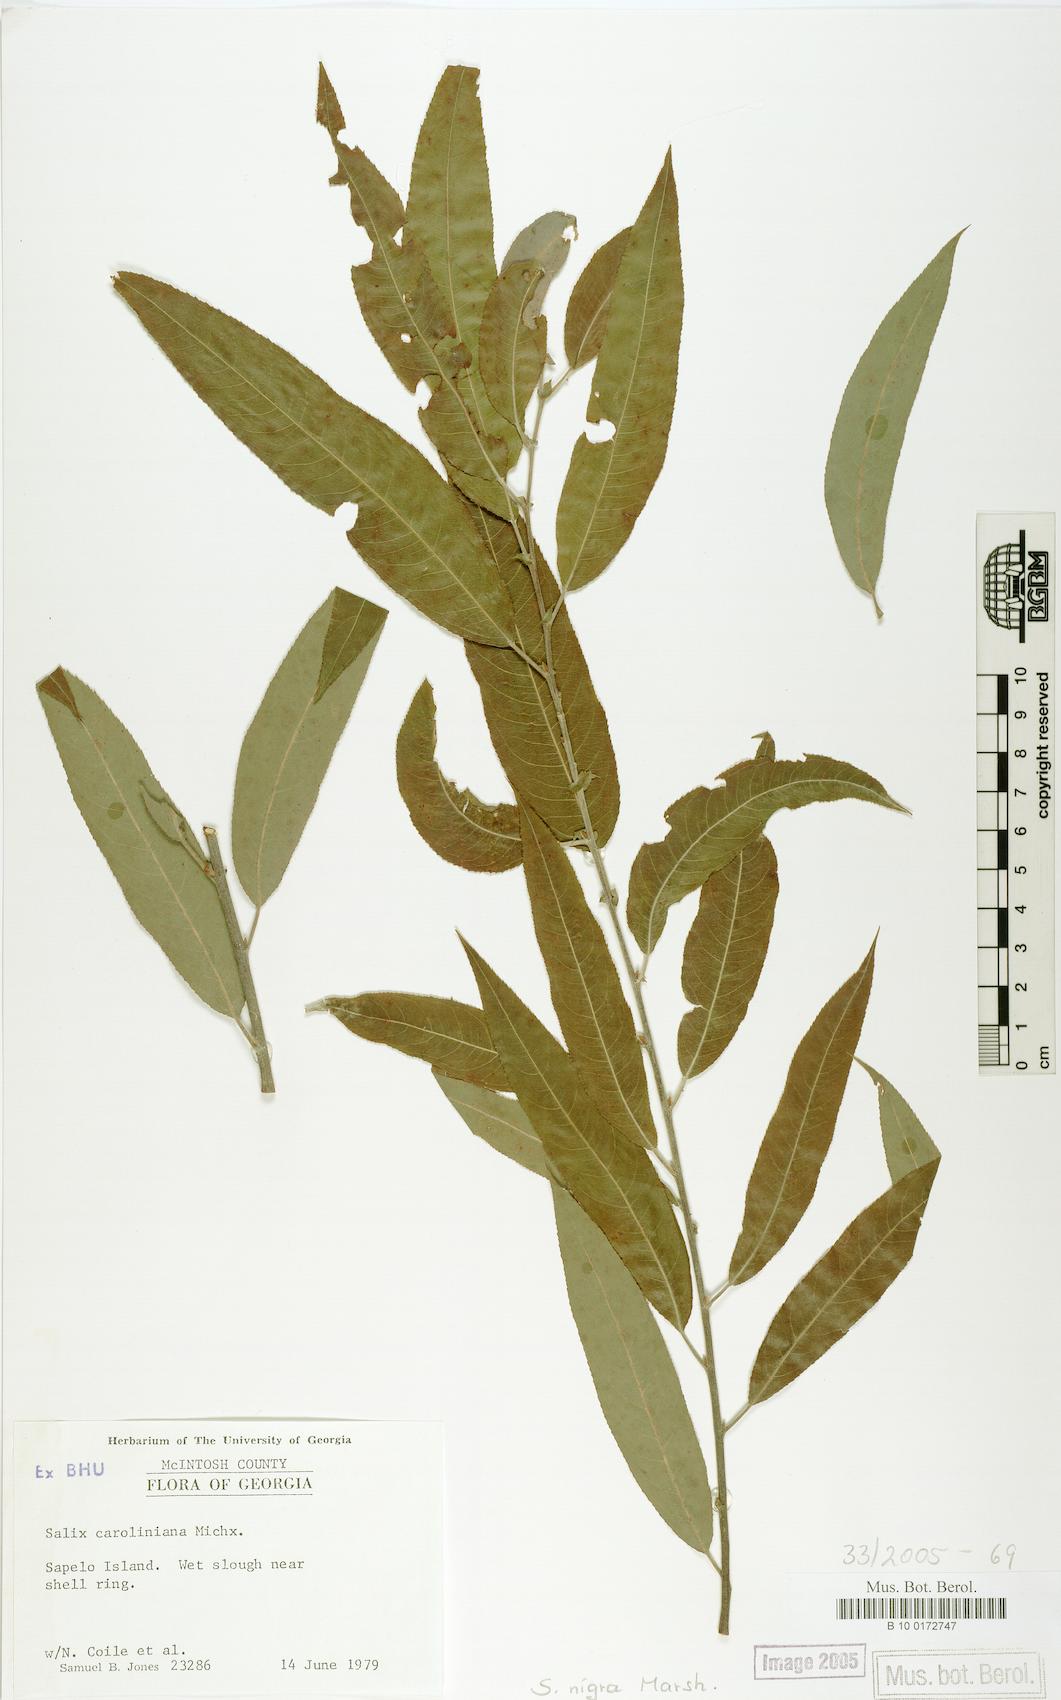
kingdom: Plantae
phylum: Tracheophyta
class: Magnoliopsida
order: Malpighiales
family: Salicaceae
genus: Salix
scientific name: Salix nigra
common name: Black willow
